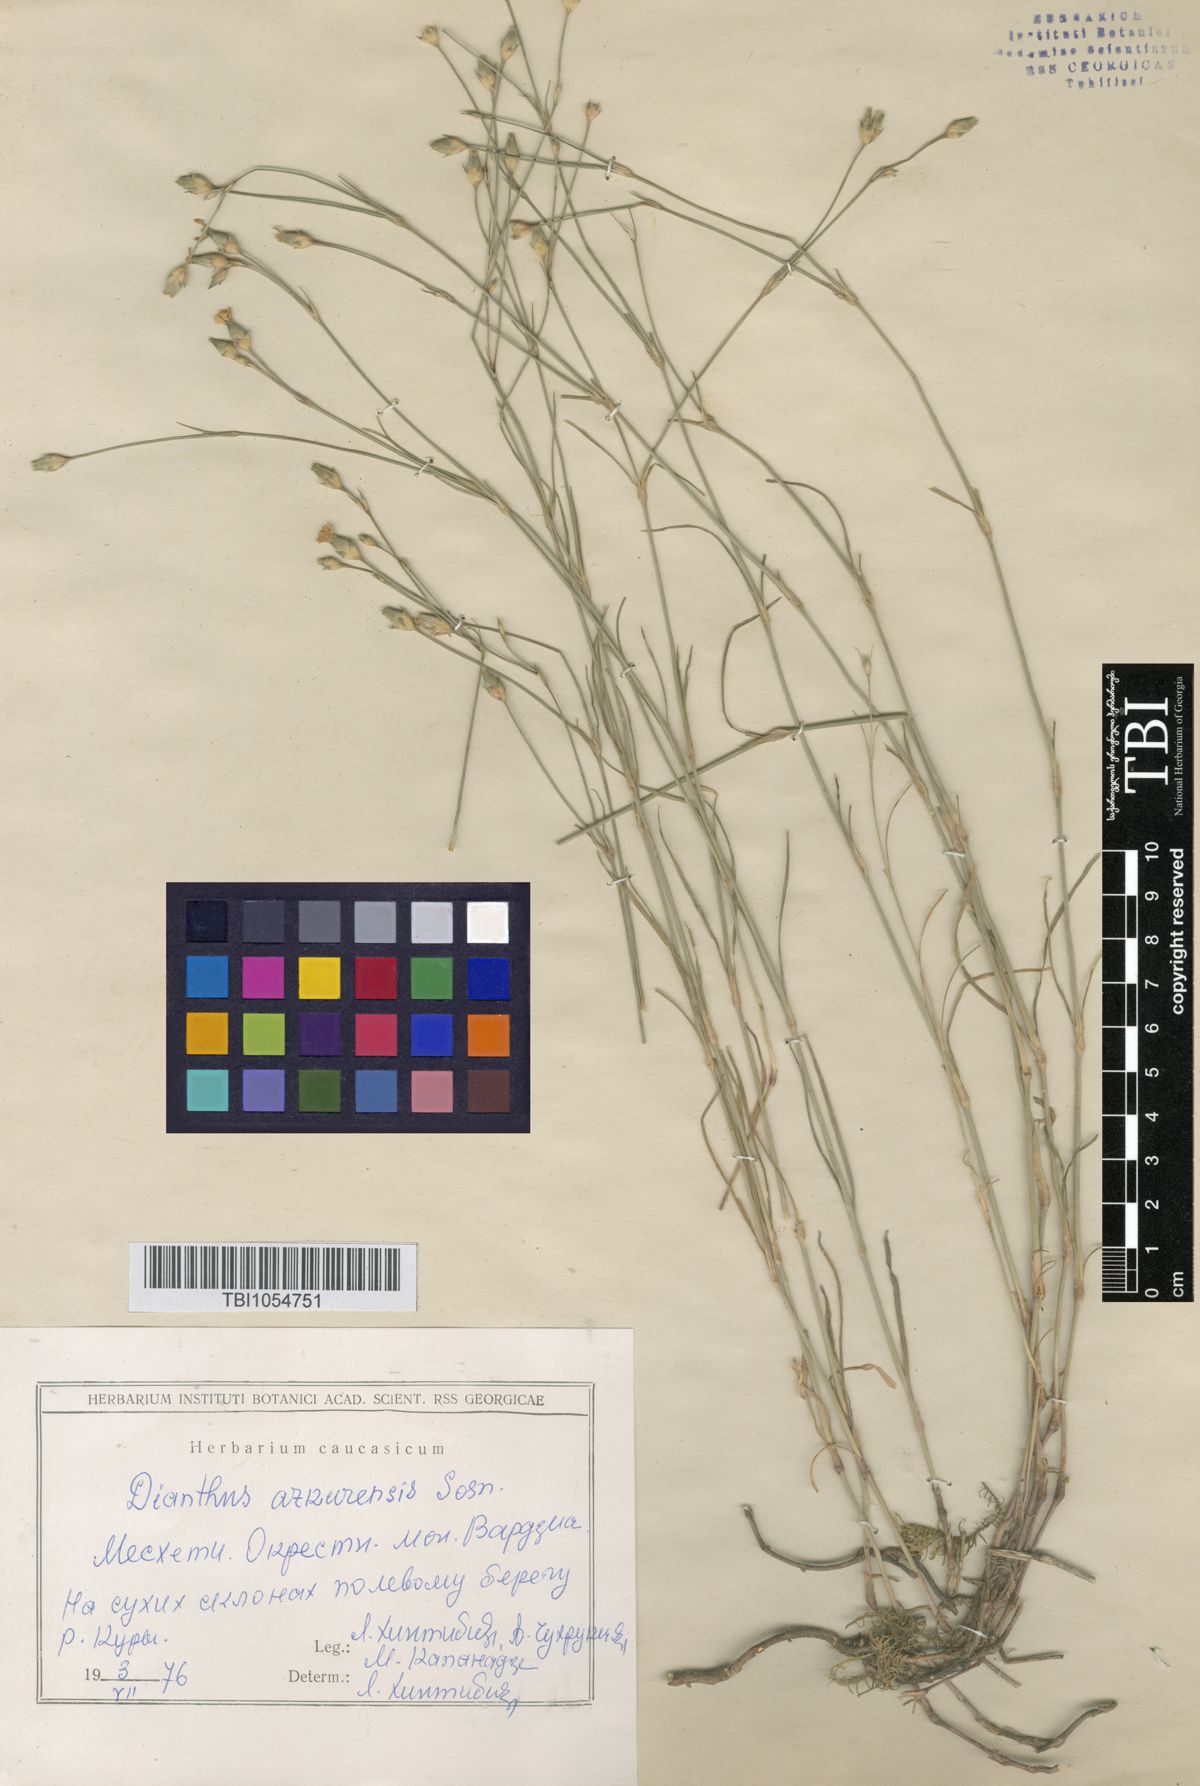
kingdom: Plantae
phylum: Tracheophyta
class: Magnoliopsida
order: Caryophyllales
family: Caryophyllaceae
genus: Dianthus
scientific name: Dianthus
